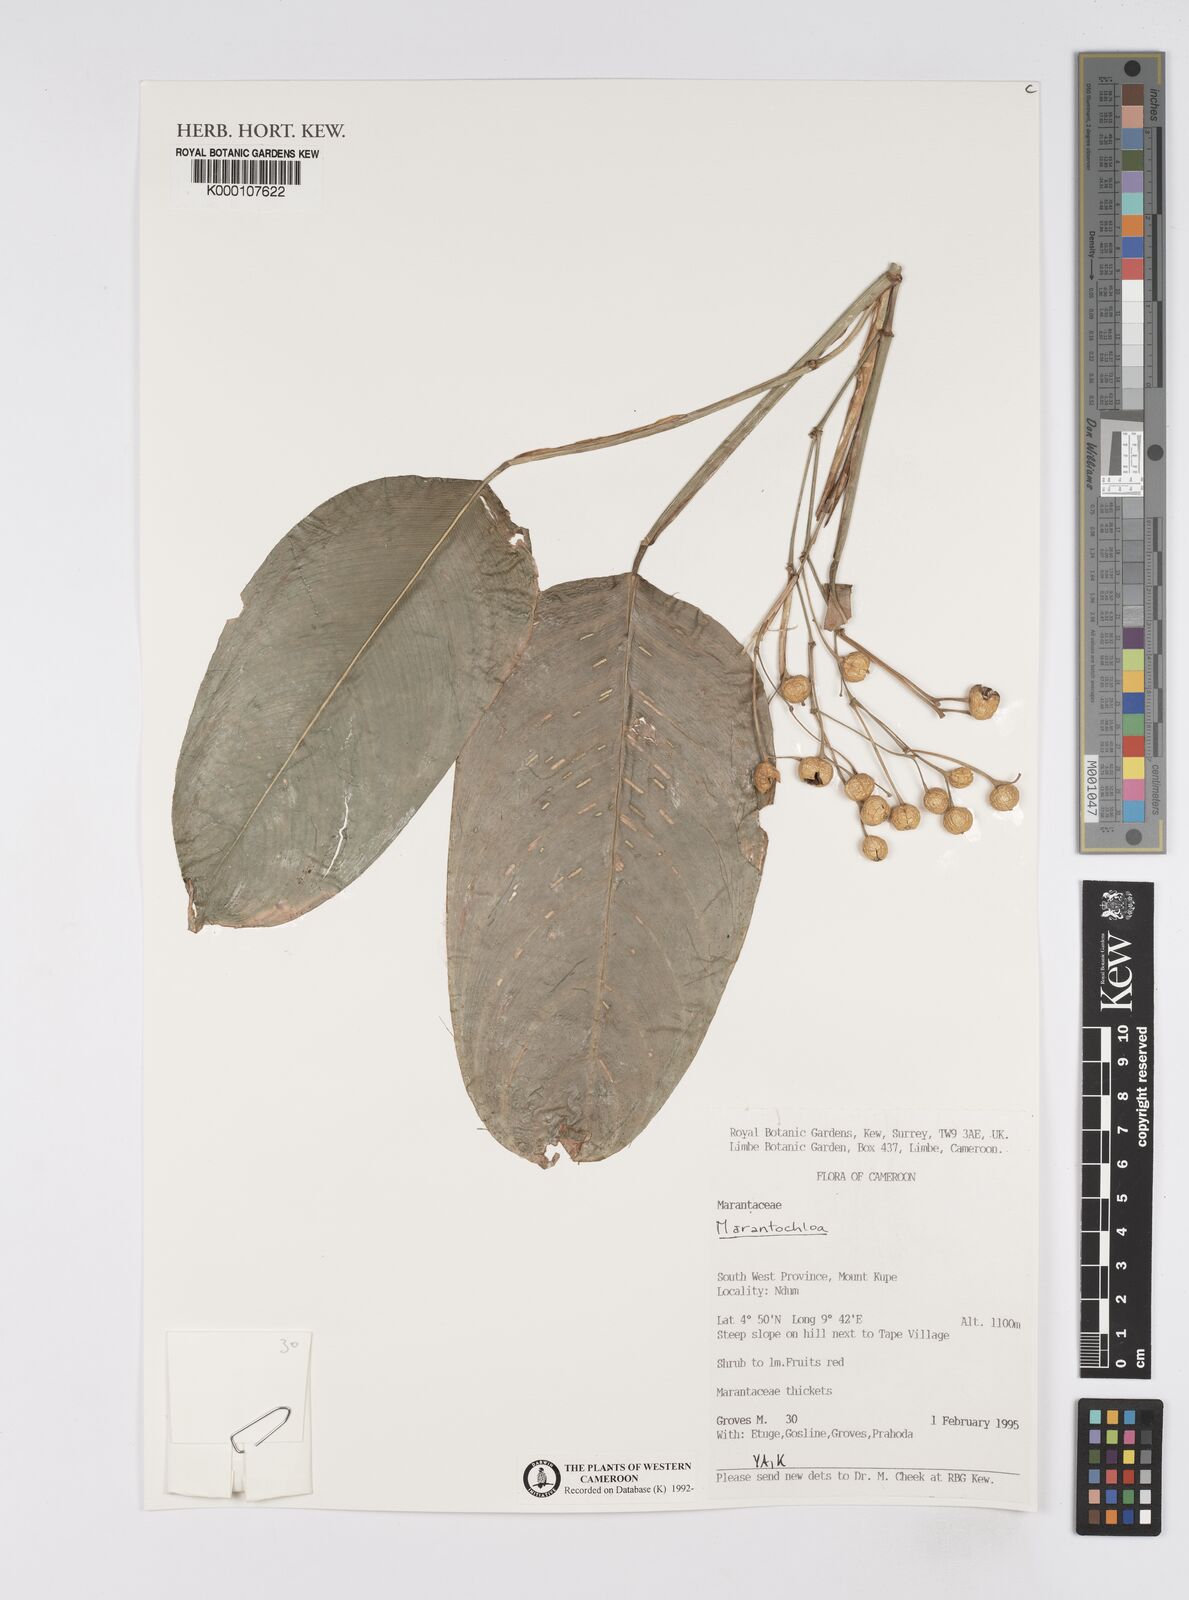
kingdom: Plantae
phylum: Tracheophyta
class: Liliopsida
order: Zingiberales
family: Marantaceae
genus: Marantochloa
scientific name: Marantochloa leucantha
